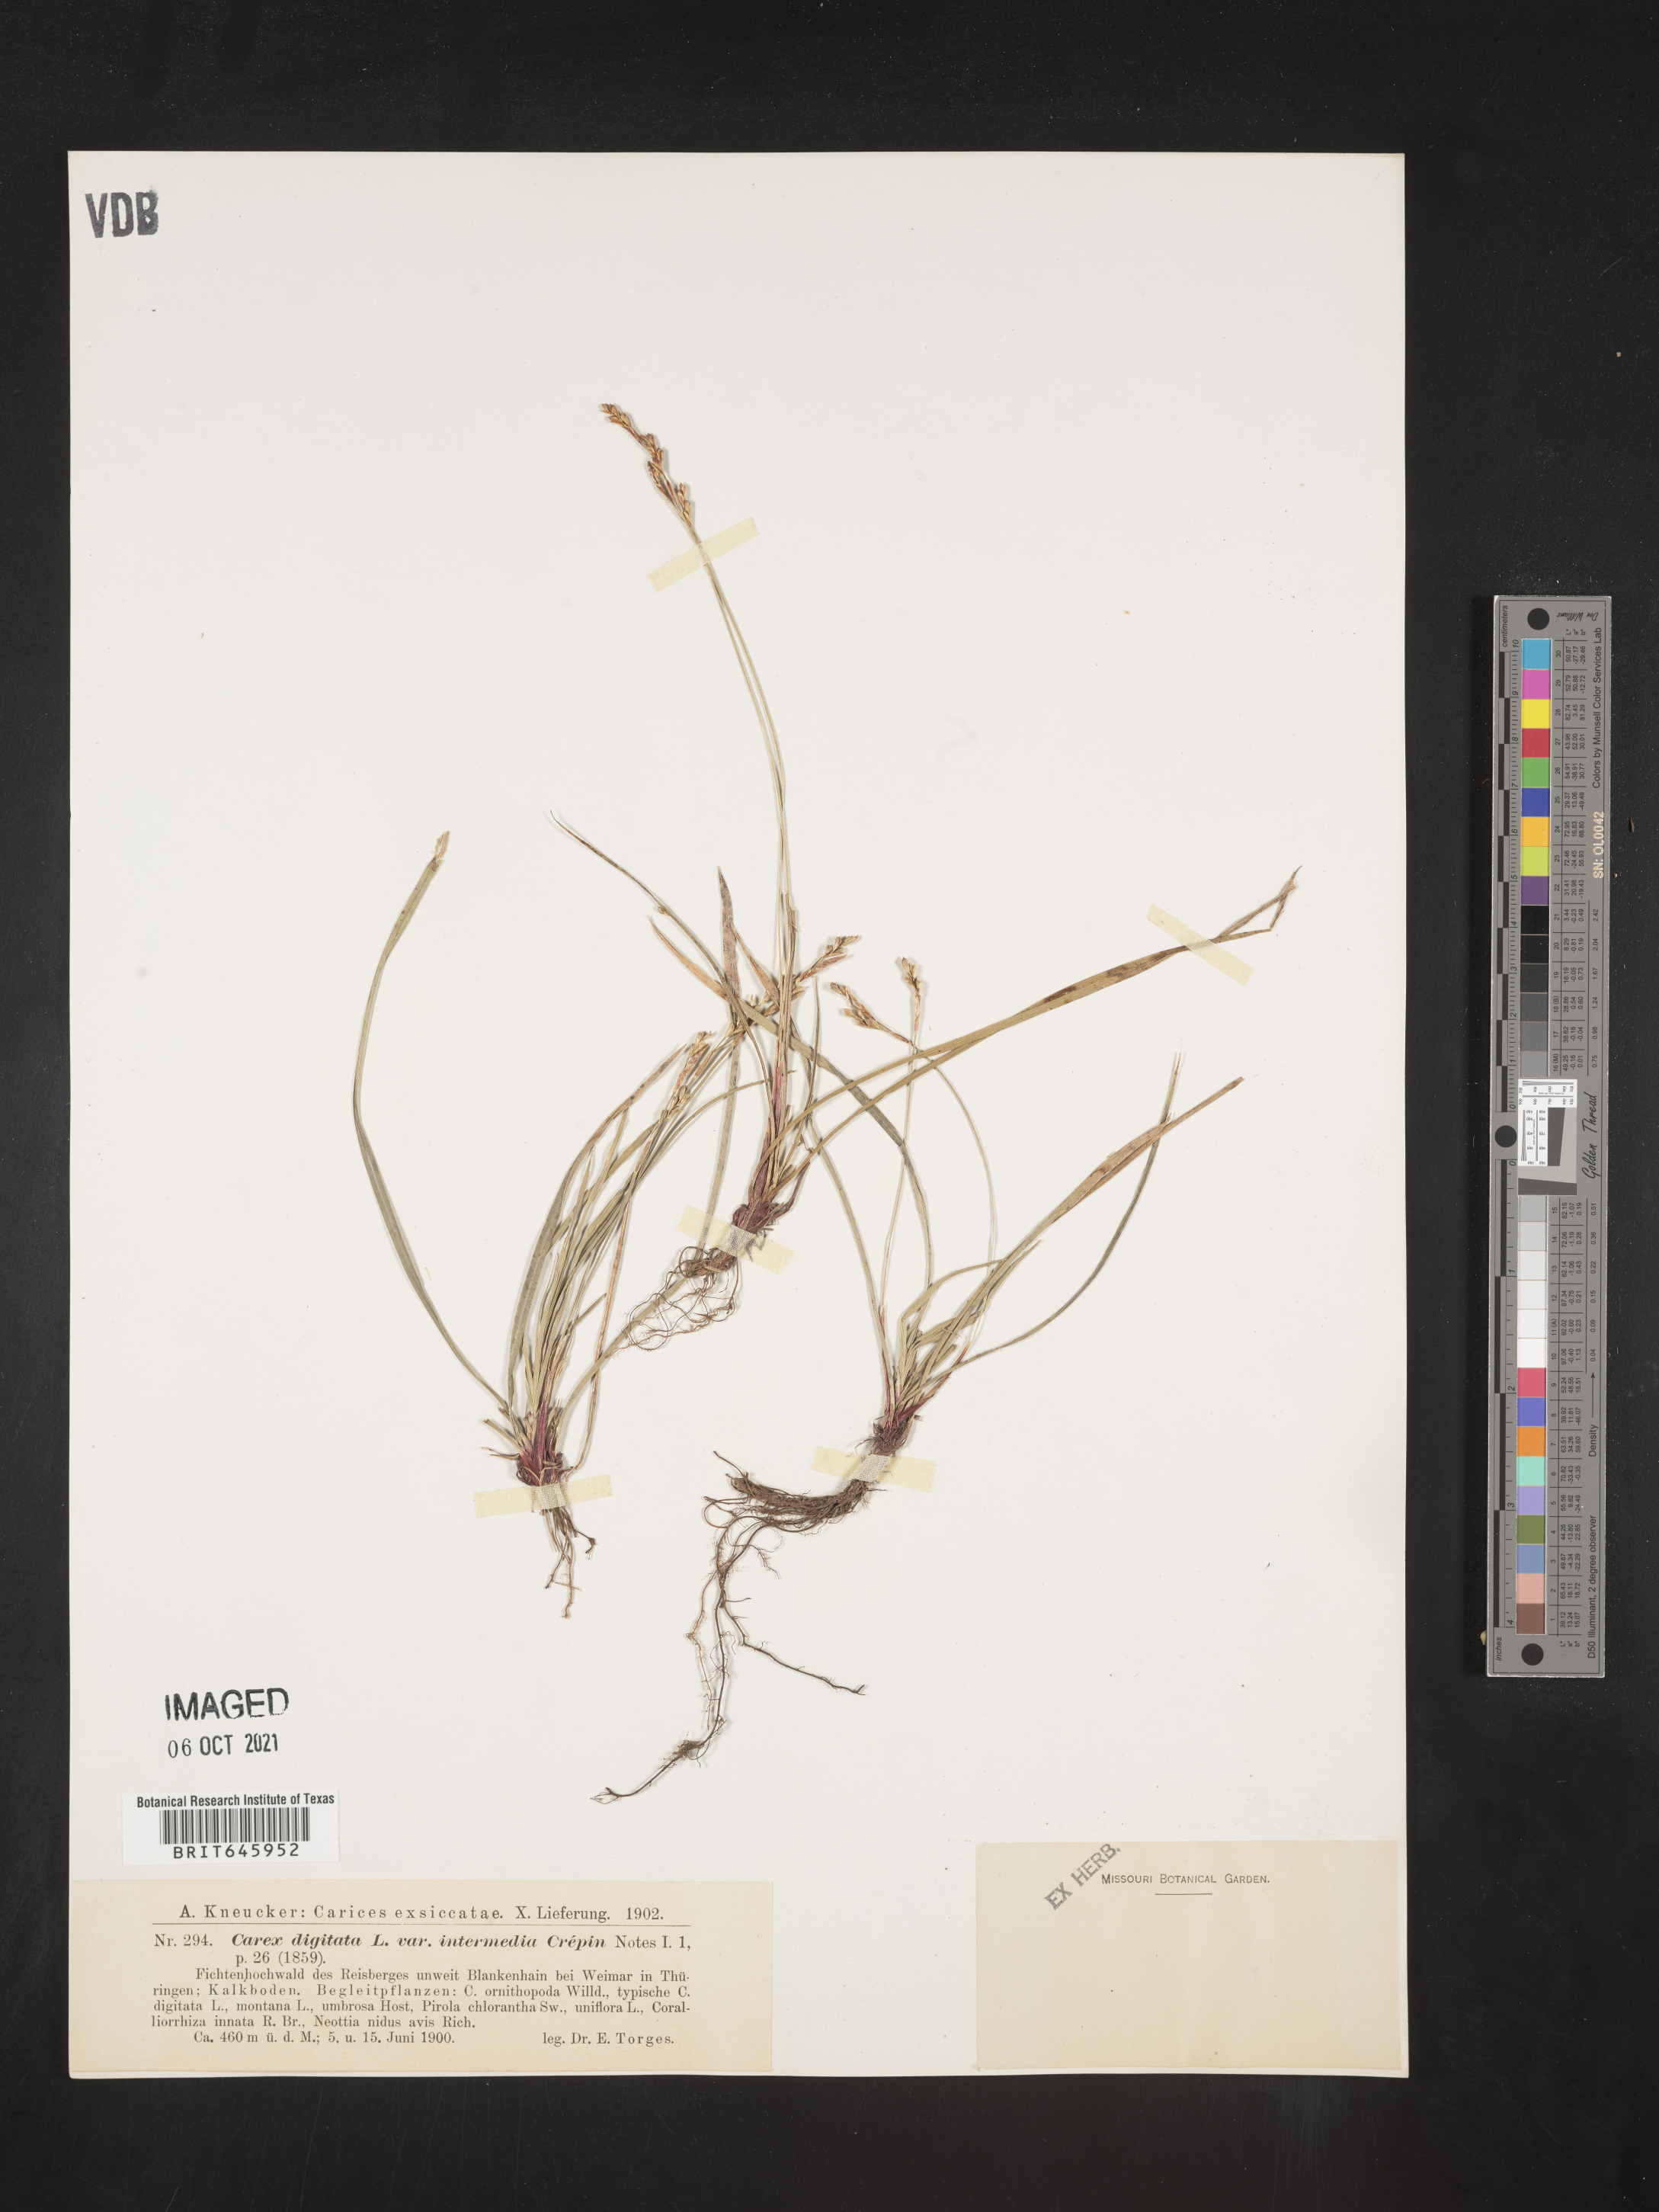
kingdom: Plantae
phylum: Tracheophyta
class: Liliopsida
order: Poales
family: Cyperaceae
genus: Carex
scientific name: Carex digitata
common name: Fingered sedge
